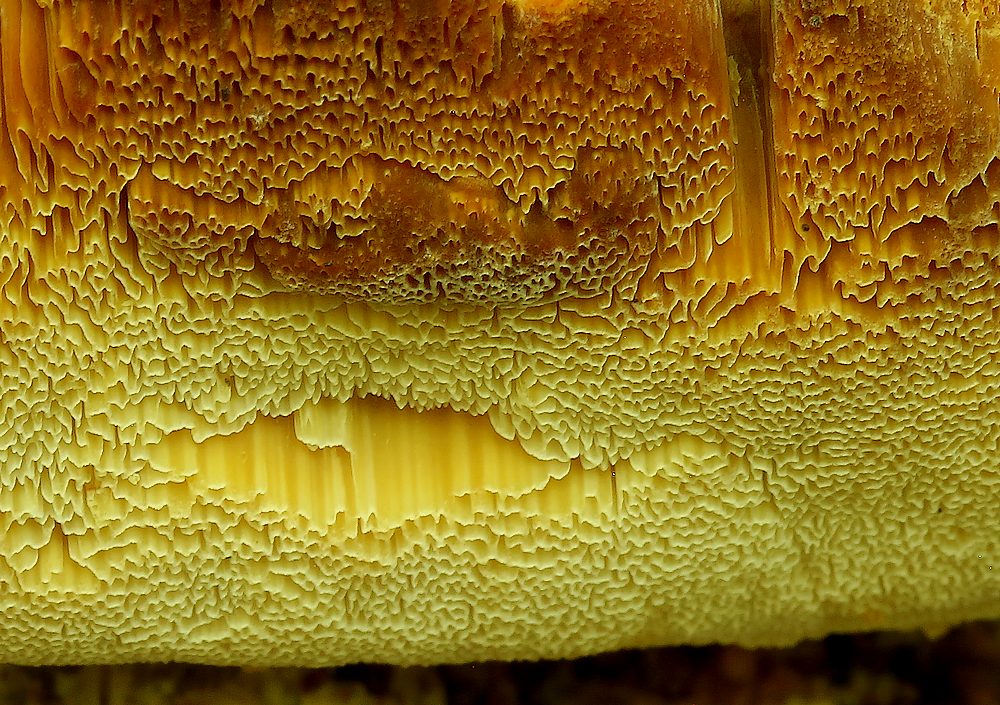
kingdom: Fungi
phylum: Basidiomycota
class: Agaricomycetes
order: Polyporales
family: Steccherinaceae
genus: Antrodiella
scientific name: Antrodiella mentschulensis
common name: abrikosporesvamp
